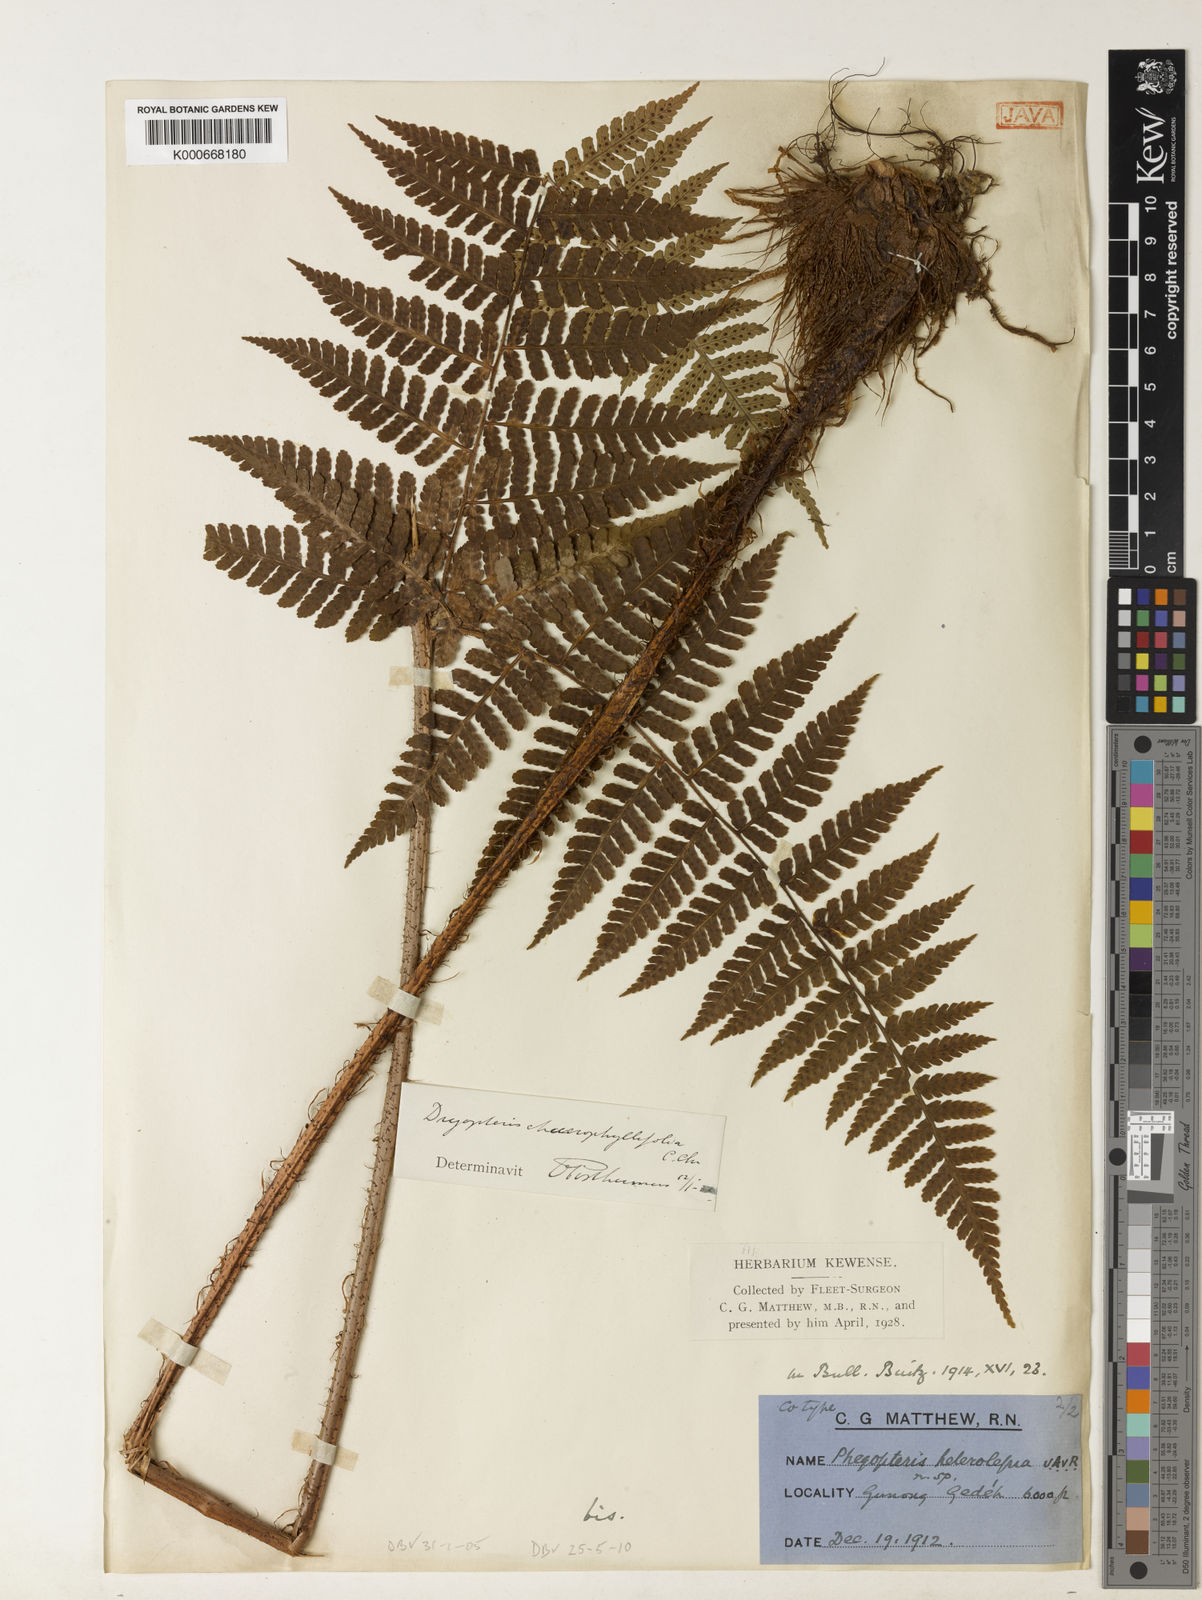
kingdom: Plantae
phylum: Tracheophyta
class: Polypodiopsida
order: Polypodiales
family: Dryopteridaceae
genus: Dryopteris
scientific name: Dryopteris chaerophyllifolia
